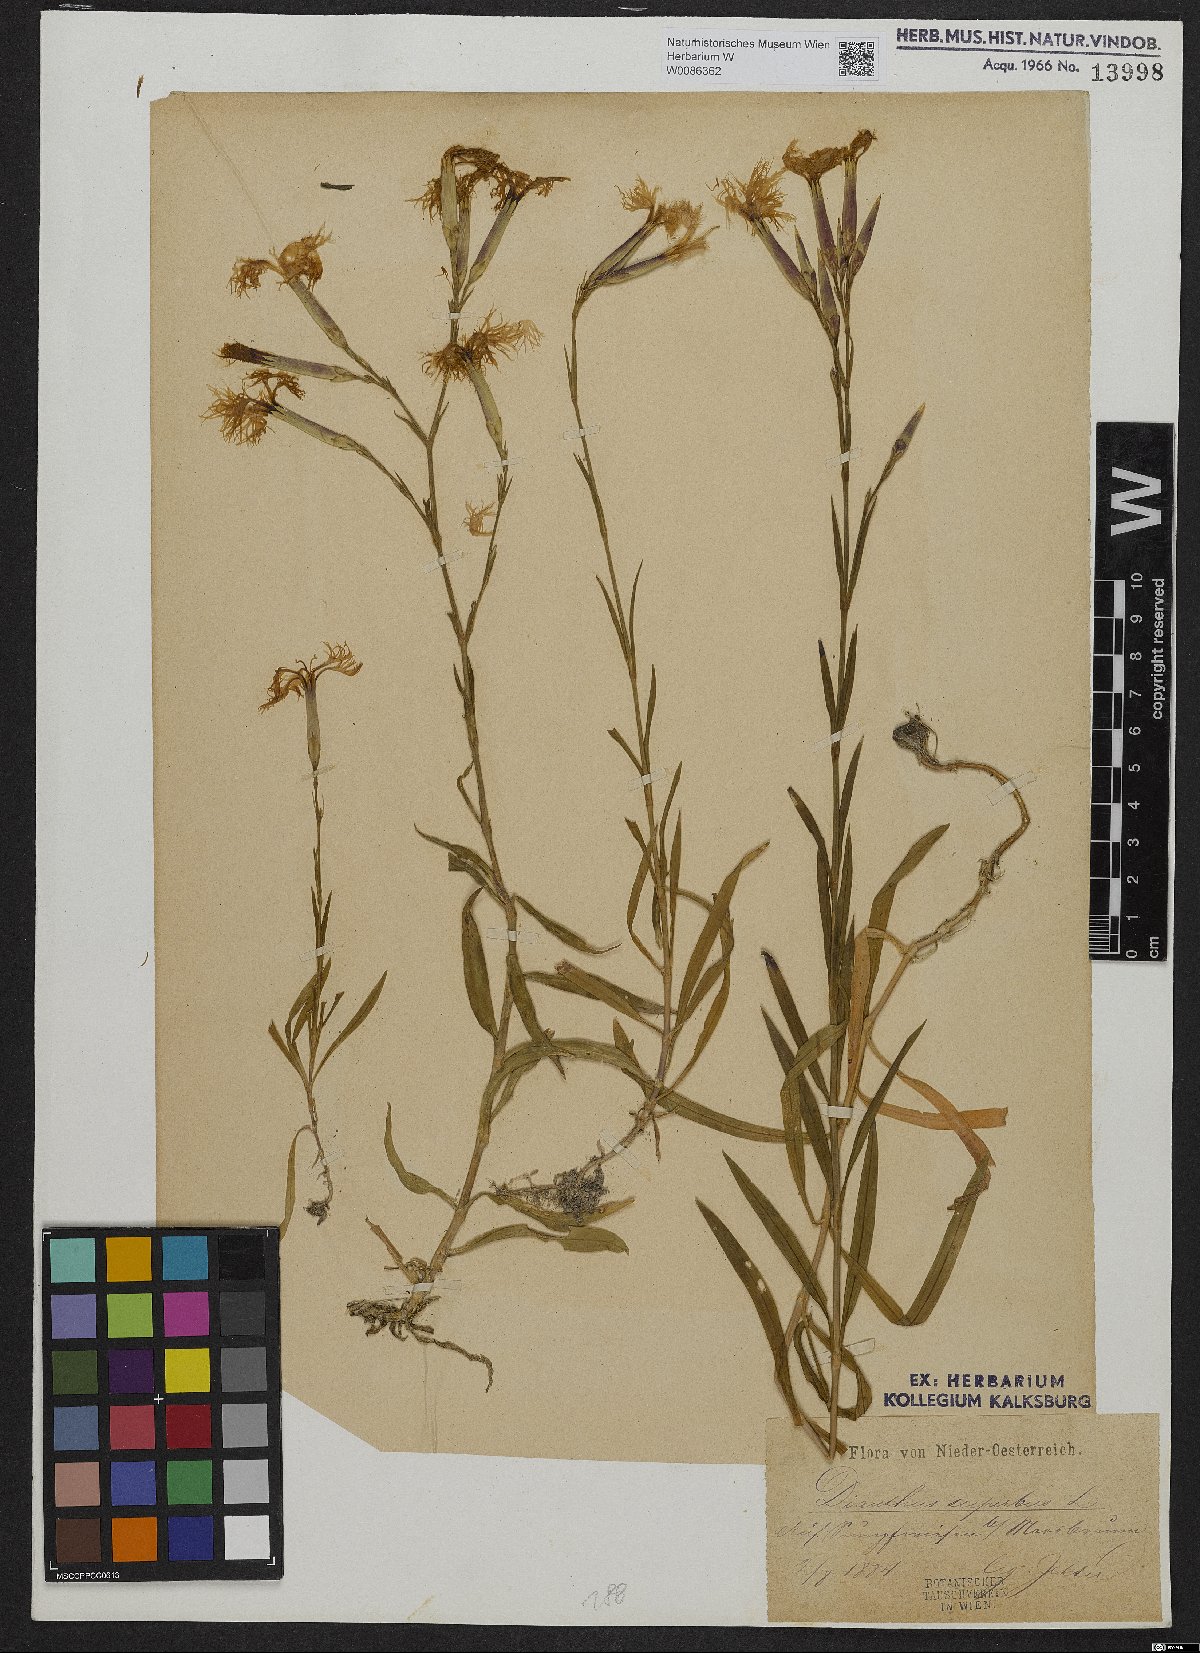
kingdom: Plantae
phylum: Tracheophyta
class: Magnoliopsida
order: Caryophyllales
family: Caryophyllaceae
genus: Dianthus
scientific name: Dianthus superbus
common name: Fringed pink
